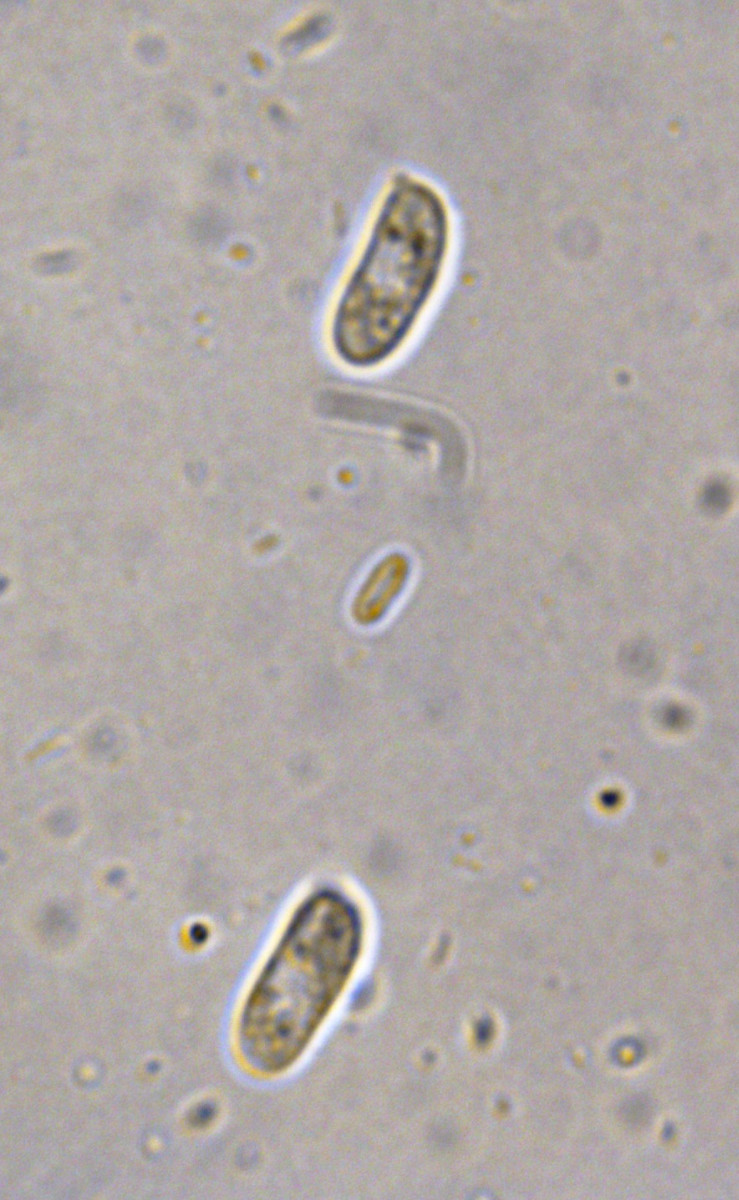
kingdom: Fungi
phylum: Basidiomycota
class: Agaricomycetes
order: Agaricales
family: Niaceae
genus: Merismodes
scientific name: Merismodes anomala
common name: almindelig læderskål
